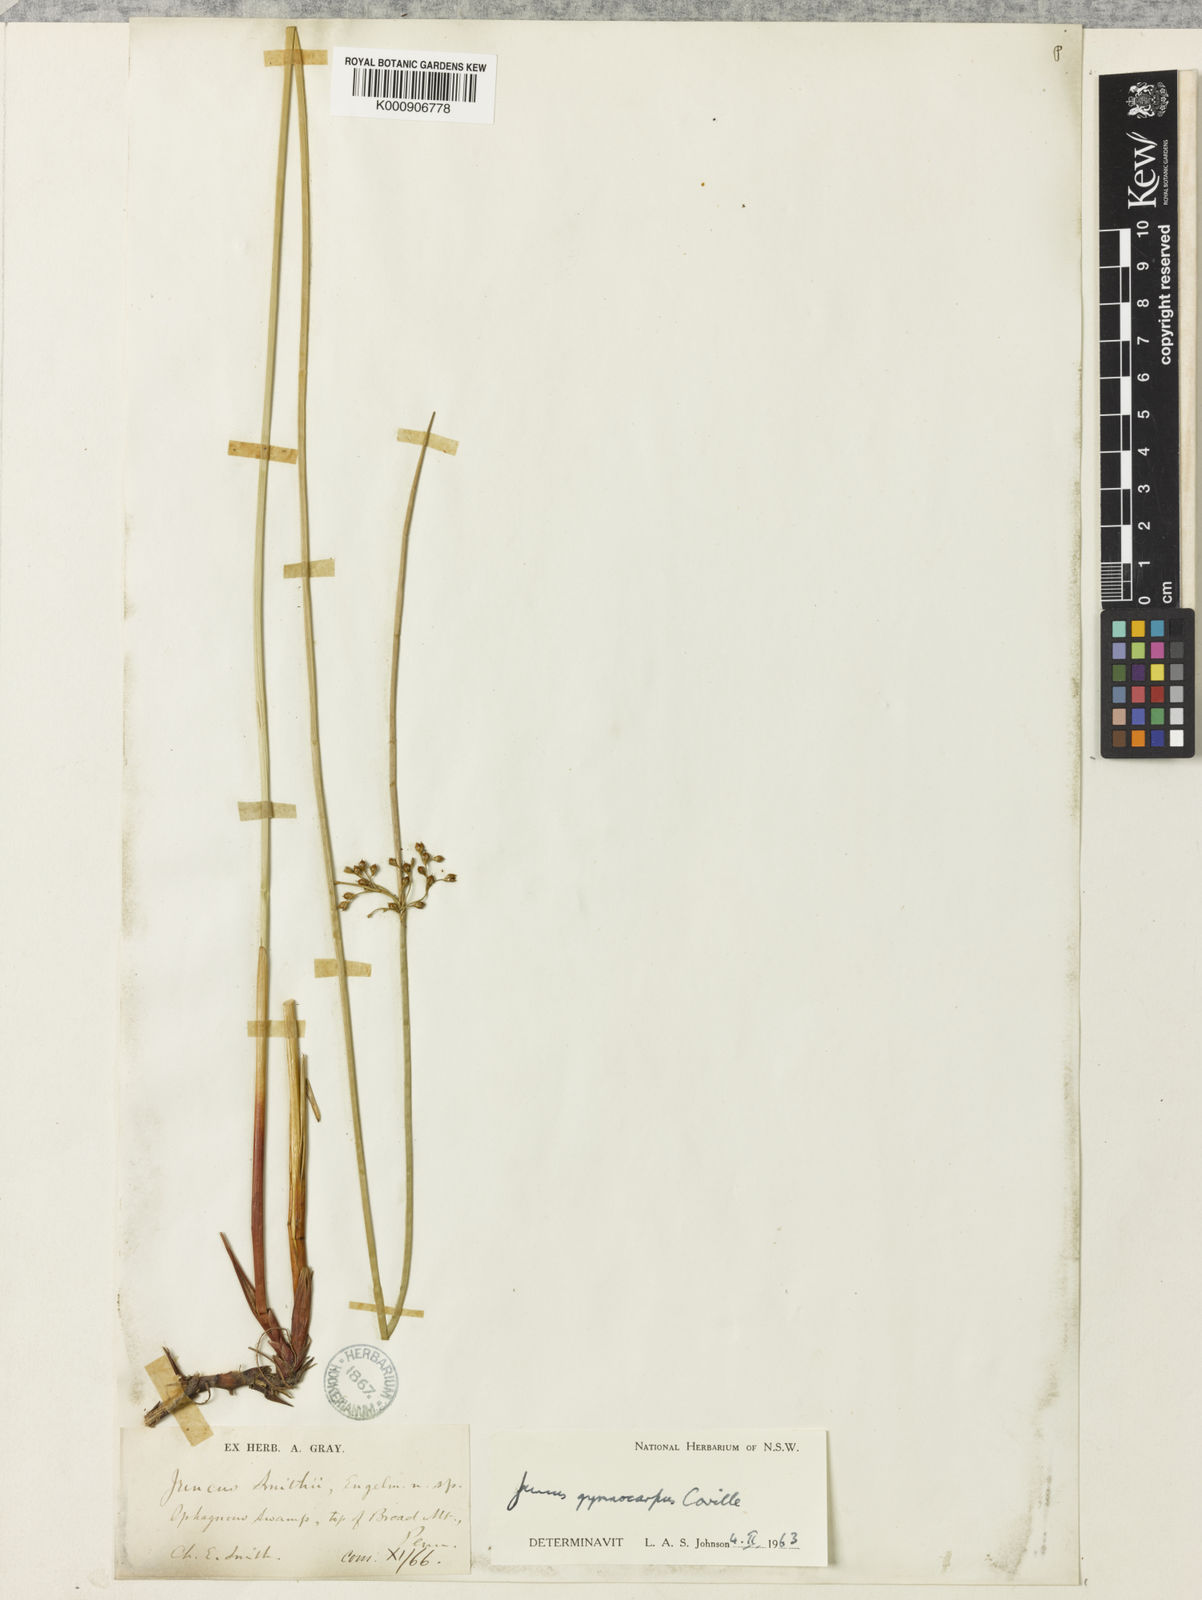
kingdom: Plantae
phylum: Tracheophyta
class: Liliopsida
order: Poales
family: Juncaceae
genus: Juncus
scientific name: Juncus gymnocarpus
